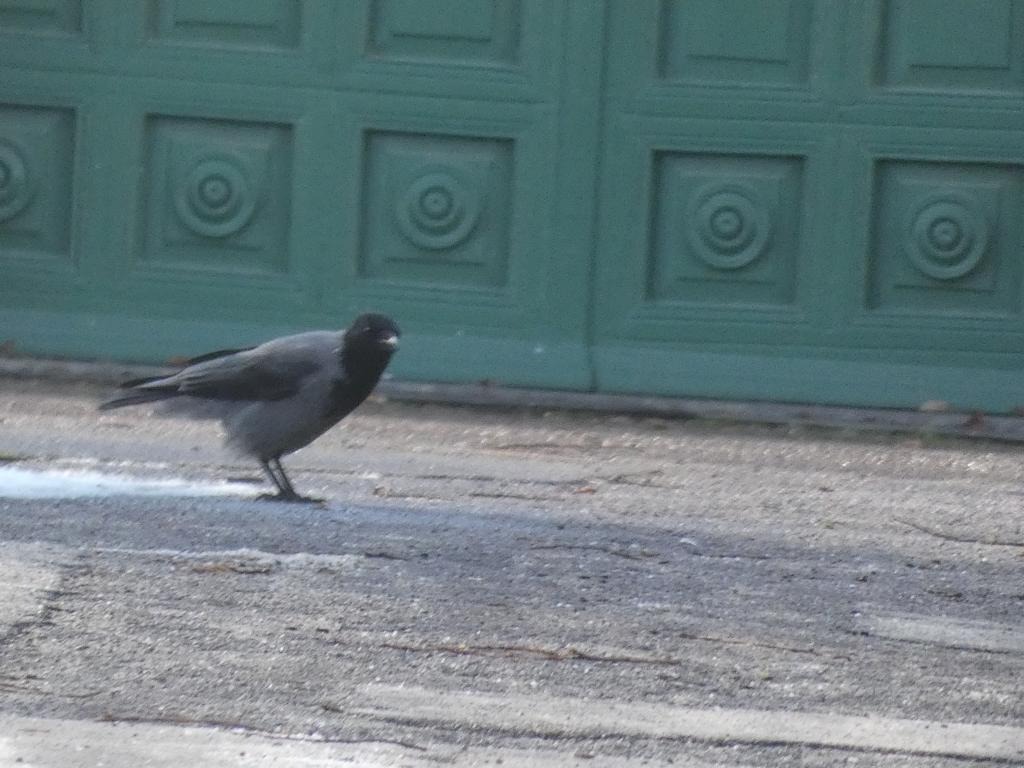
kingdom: Animalia
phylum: Chordata
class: Aves
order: Passeriformes
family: Corvidae
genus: Corvus
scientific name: Corvus cornix
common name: Gråkrage
